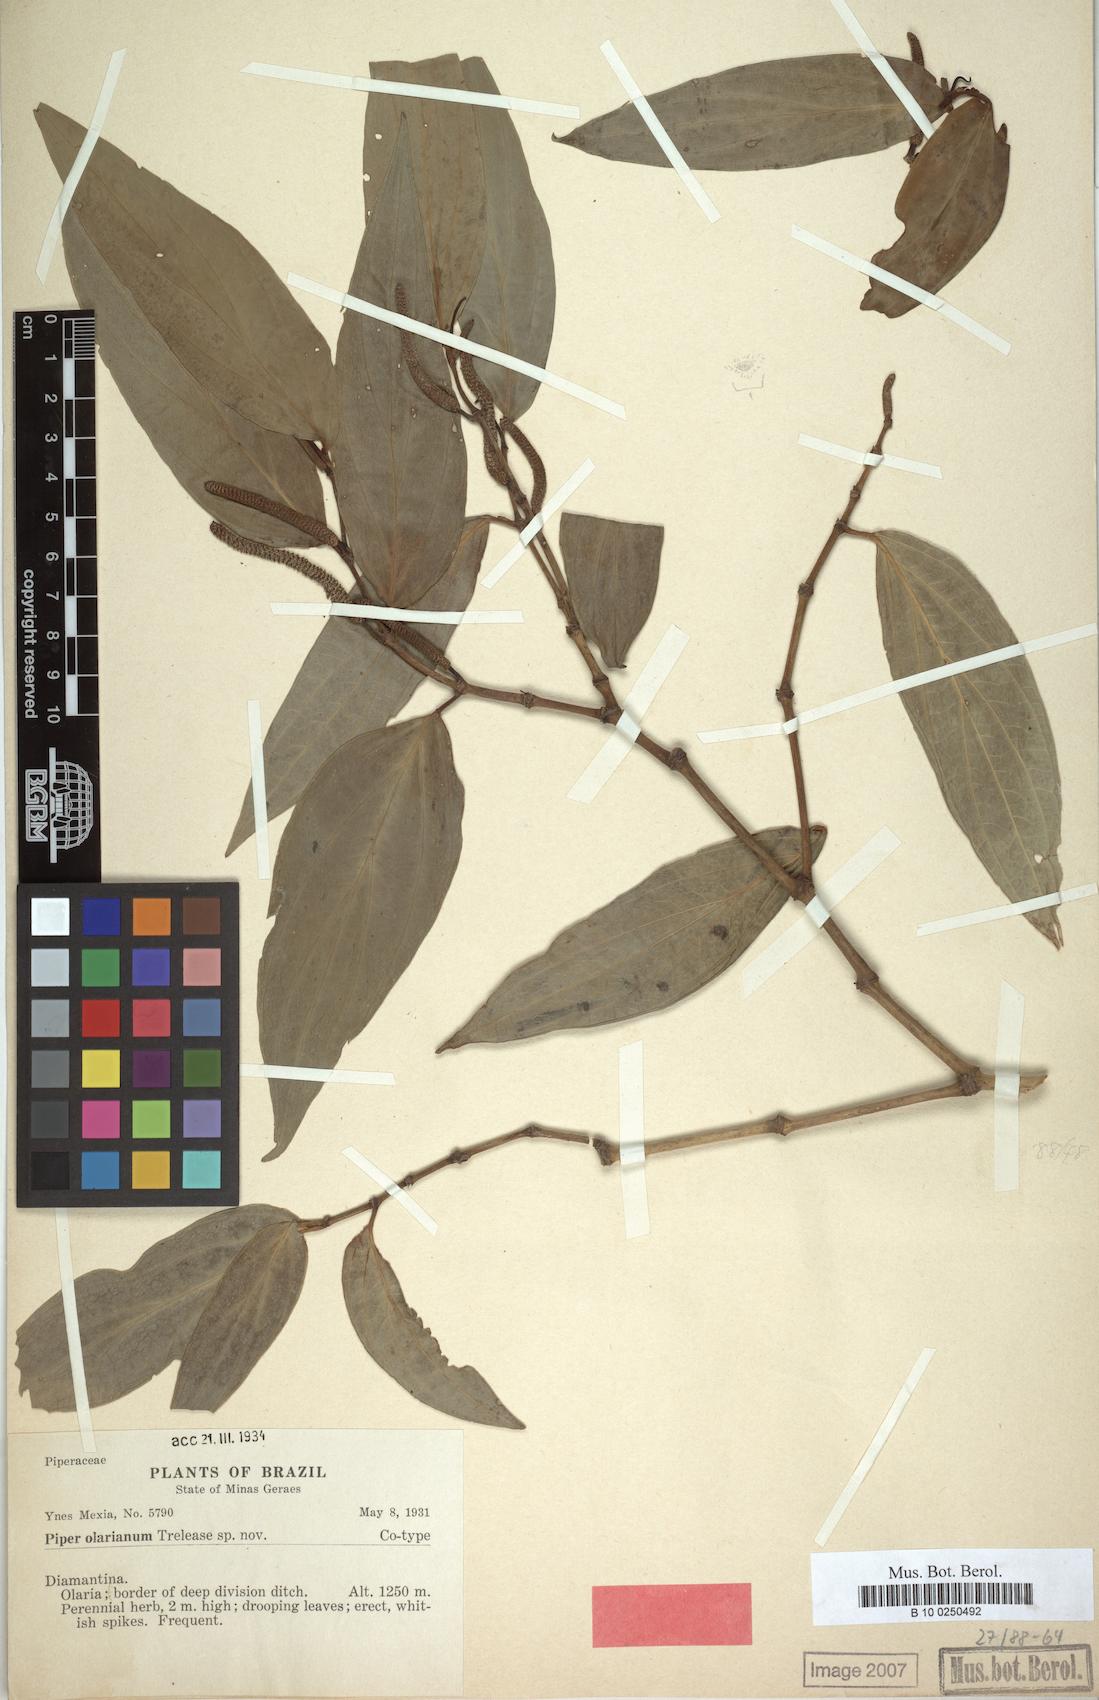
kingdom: Plantae
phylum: Tracheophyta
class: Magnoliopsida
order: Piperales
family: Piperaceae
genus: Piper
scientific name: Piper
